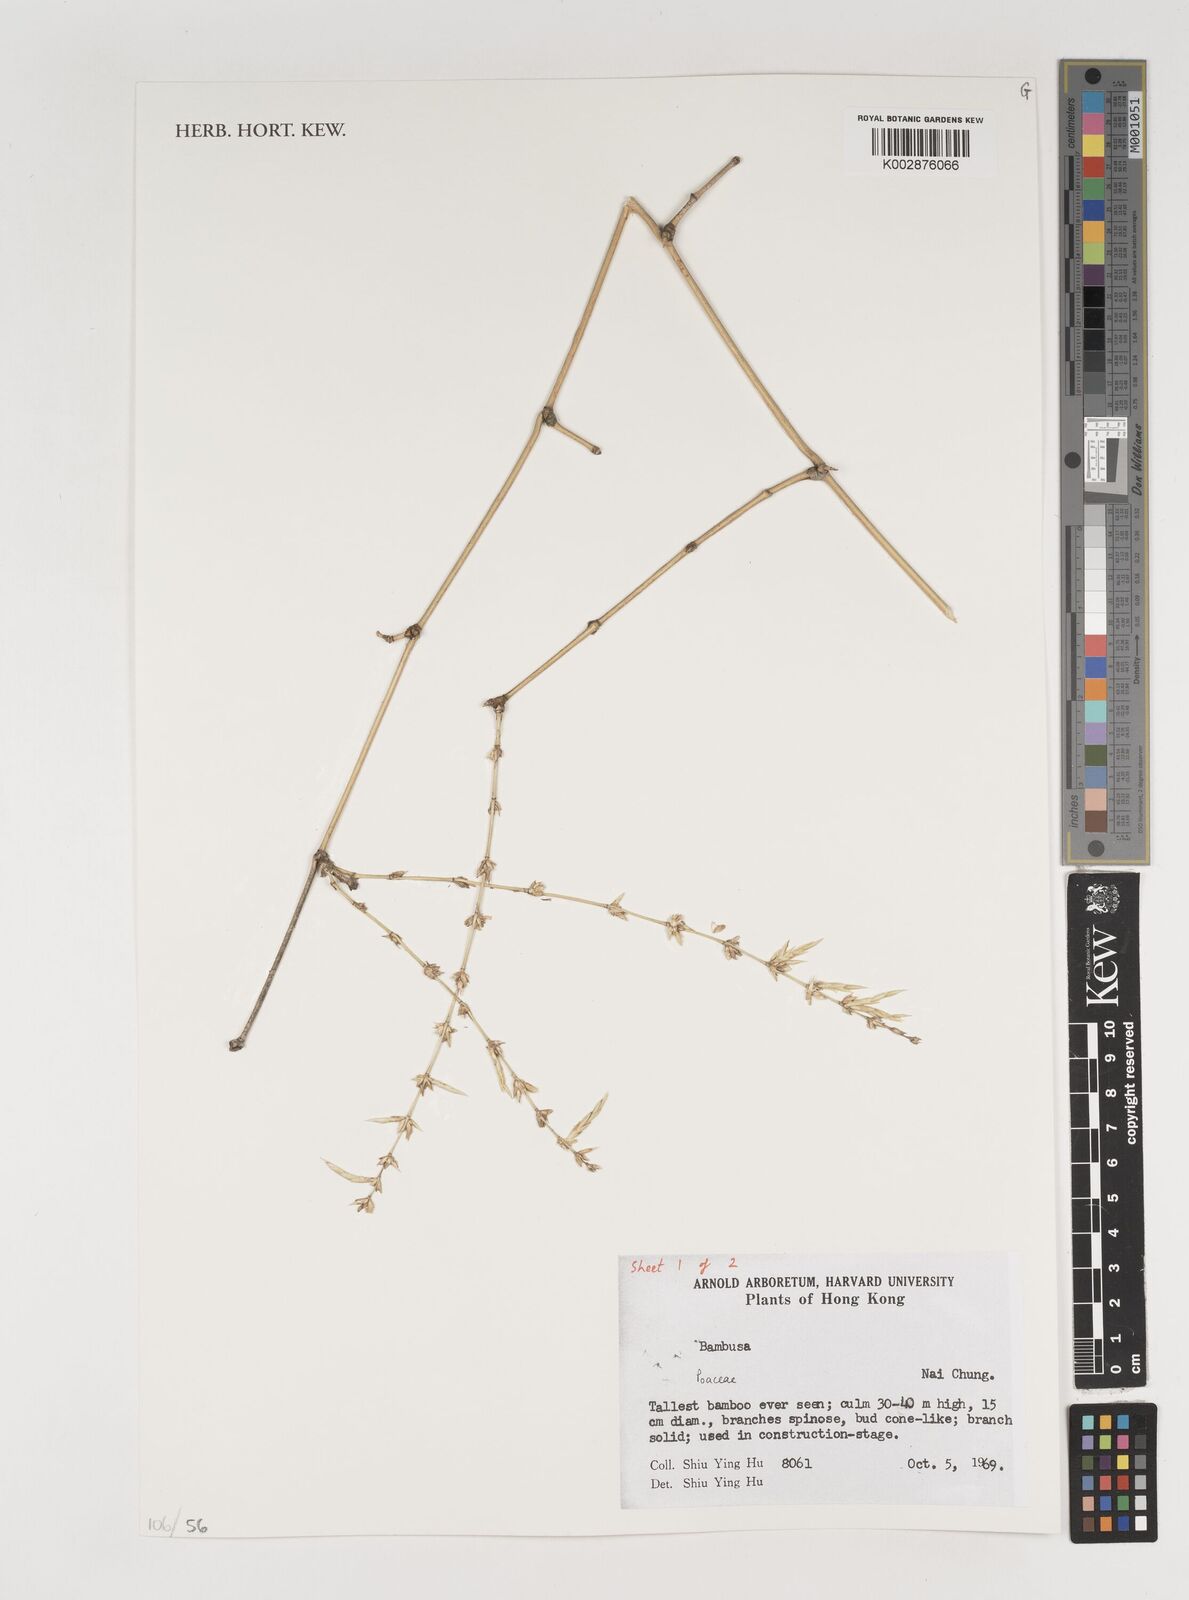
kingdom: Plantae
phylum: Tracheophyta
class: Liliopsida
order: Poales
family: Poaceae
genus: Bambusa
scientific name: Bambusa
